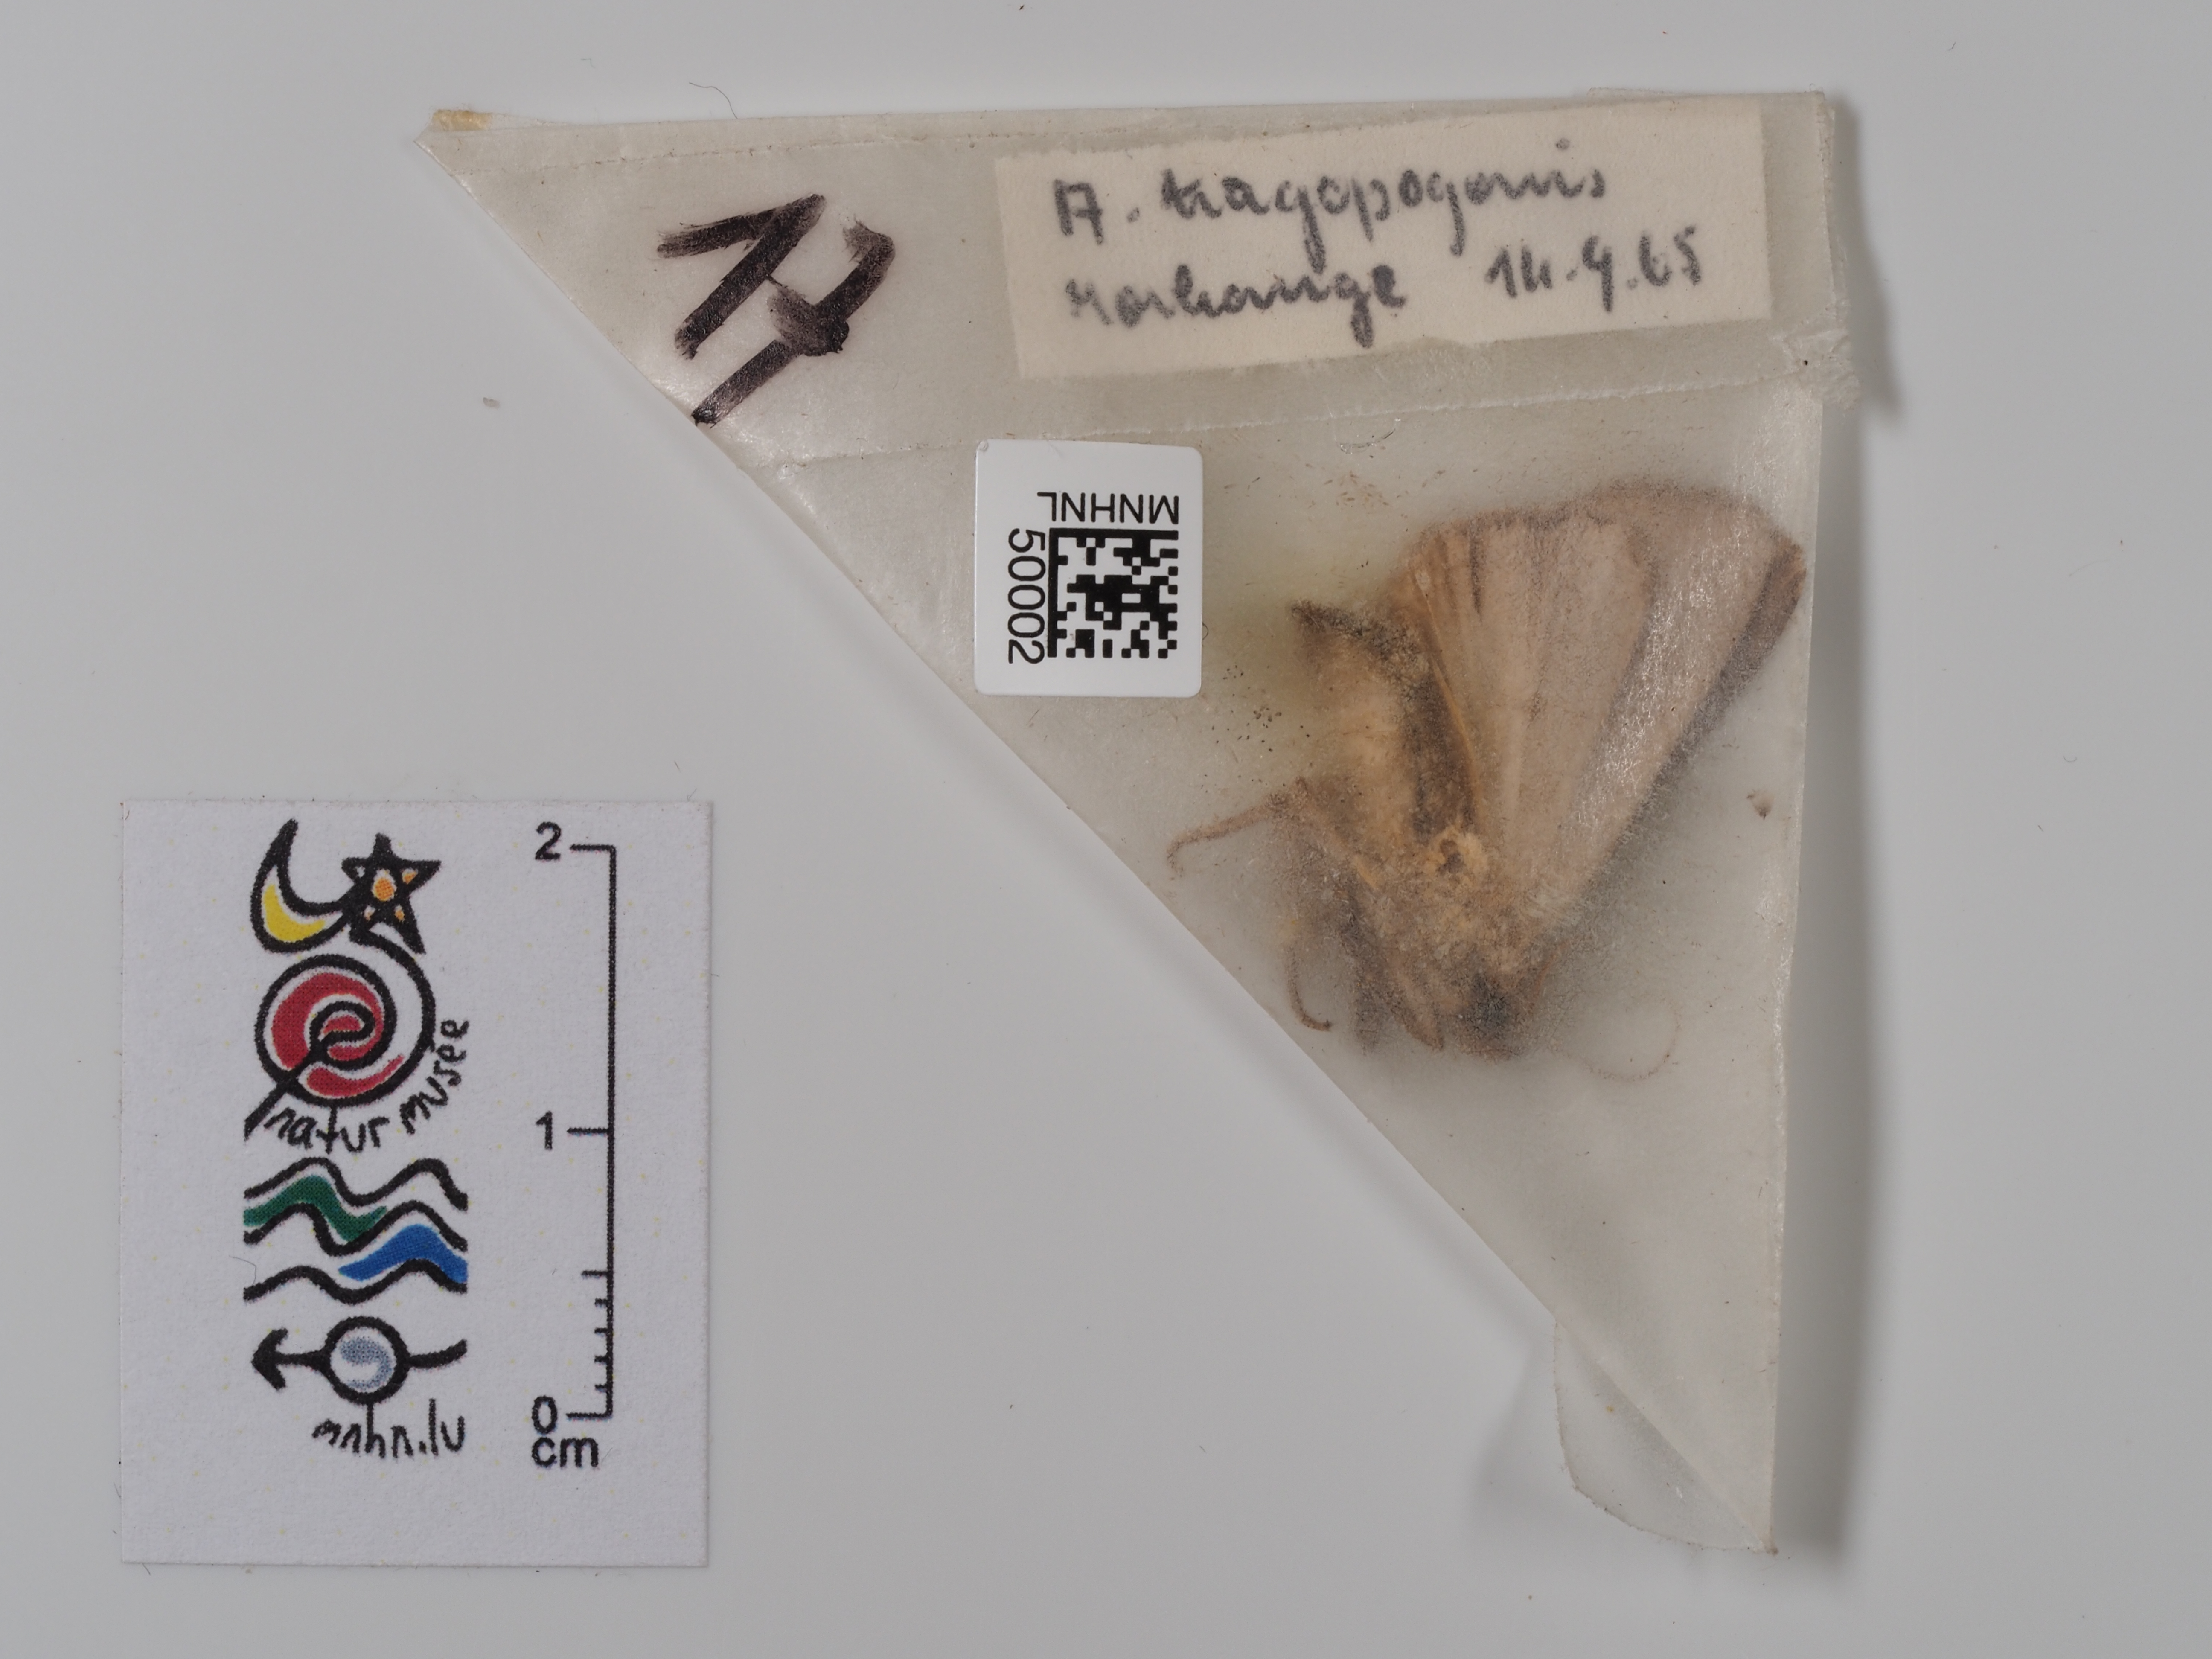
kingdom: Animalia
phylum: Arthropoda
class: Insecta
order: Lepidoptera
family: Noctuidae
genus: Amphipyra
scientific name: Amphipyra tragopoginis
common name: Mouse moth
